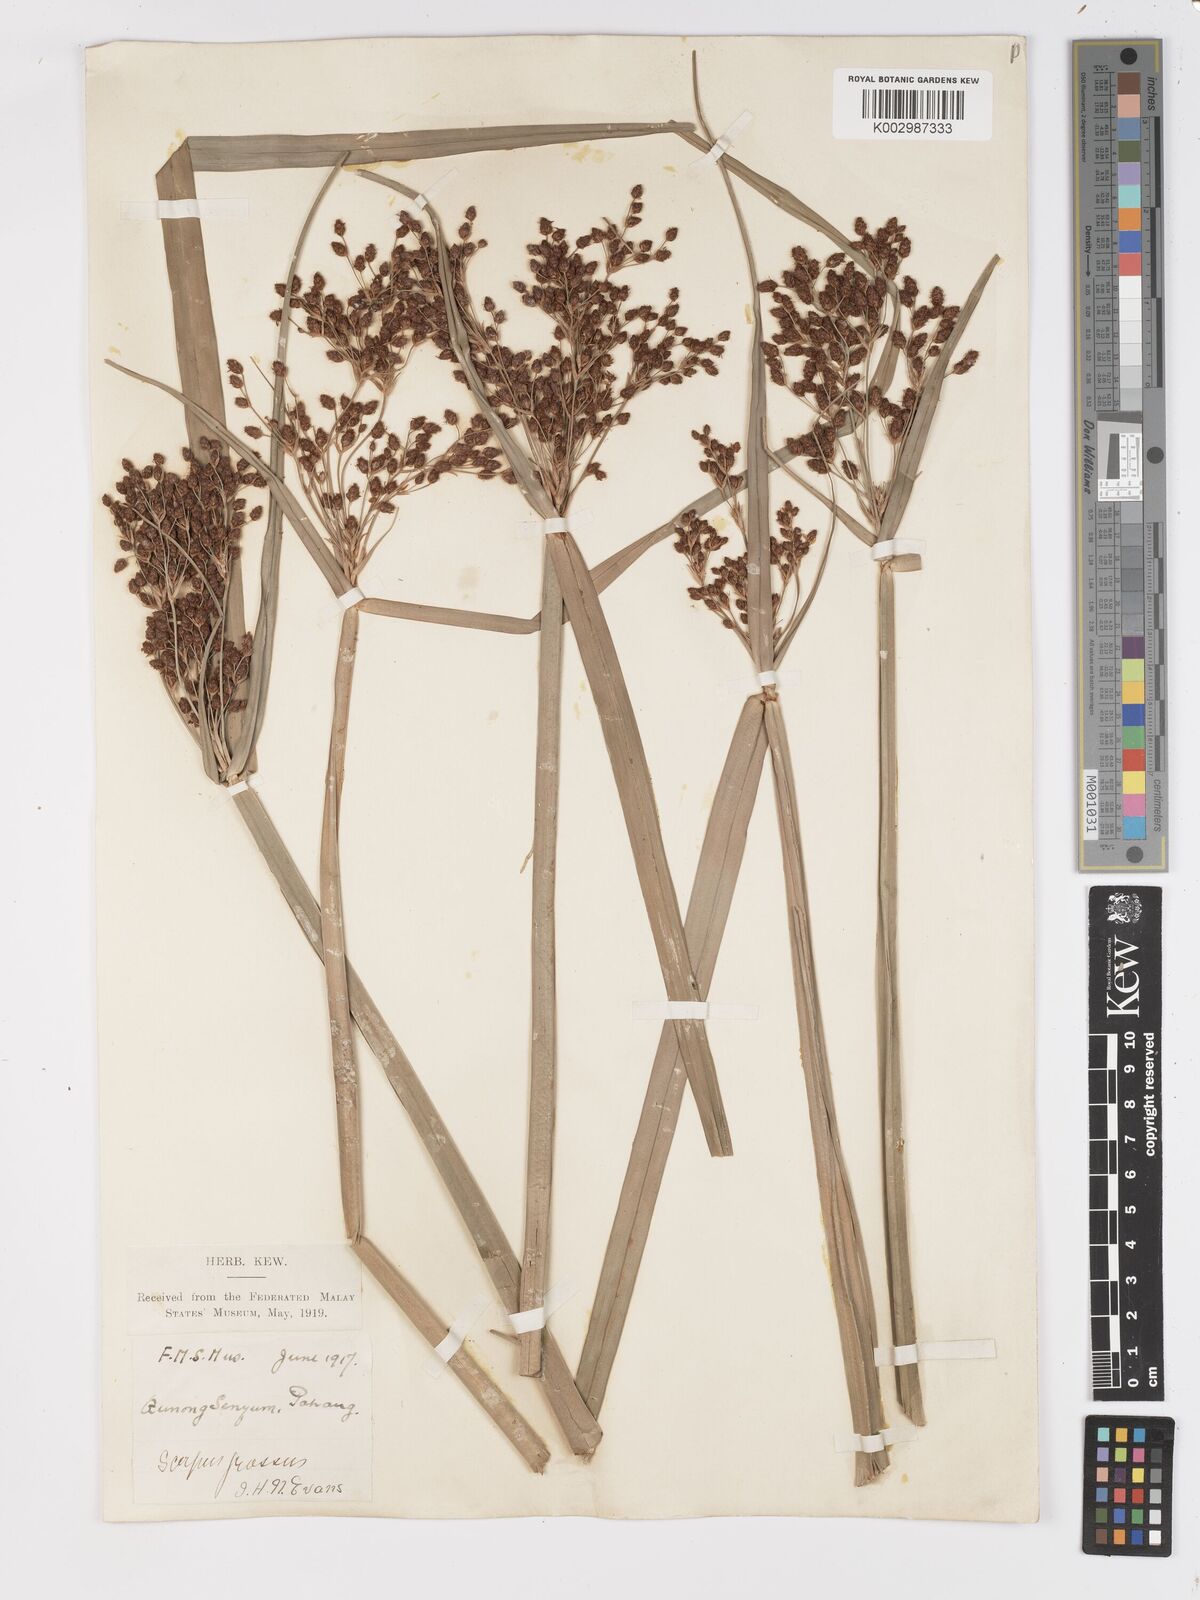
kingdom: Plantae
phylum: Tracheophyta
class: Liliopsida
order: Poales
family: Cyperaceae
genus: Actinoscirpus
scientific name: Actinoscirpus grossus
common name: Giant bur rush
